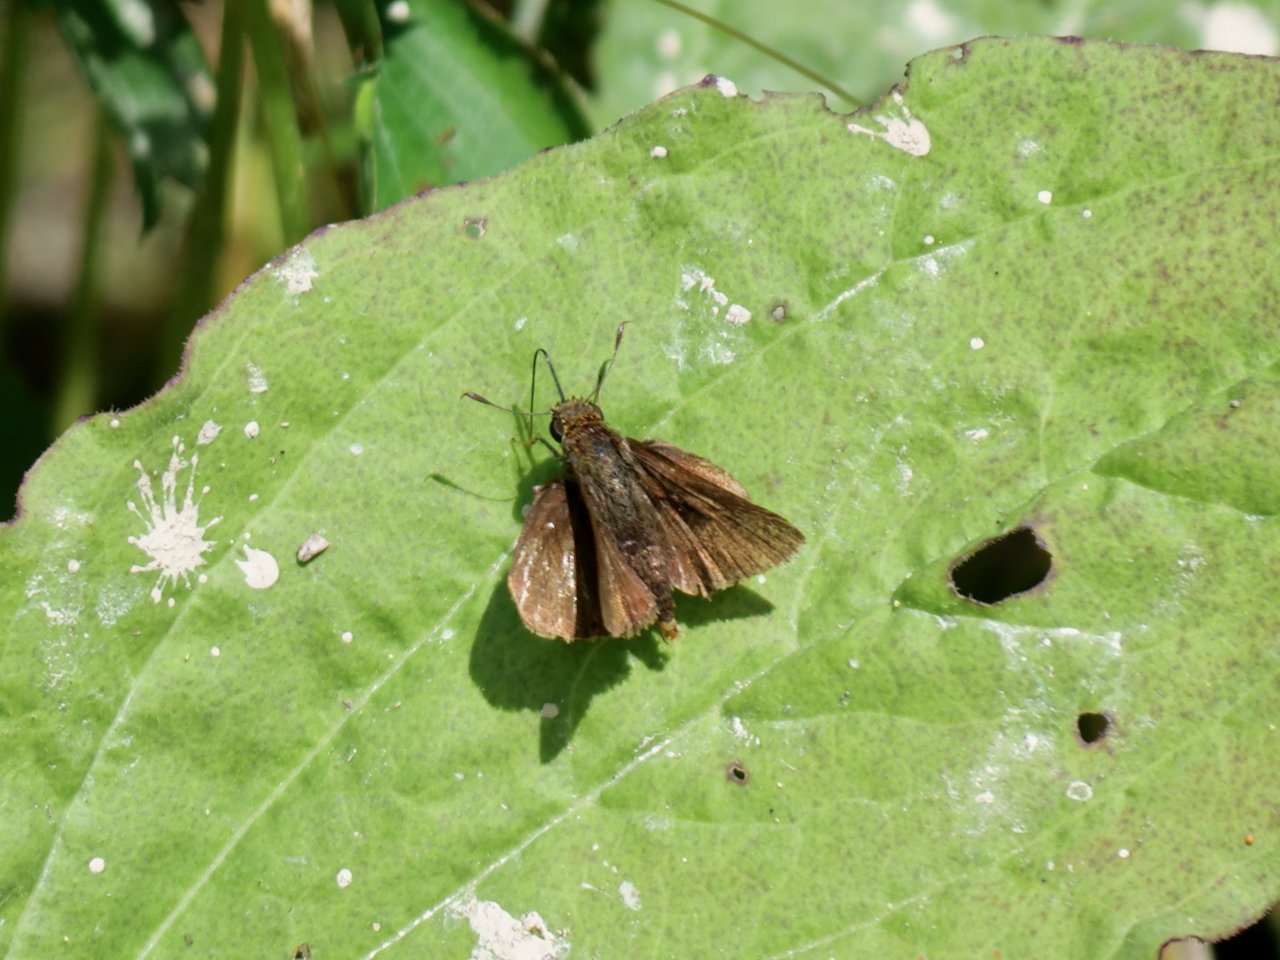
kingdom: Animalia
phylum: Arthropoda
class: Insecta
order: Lepidoptera
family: Hesperiidae
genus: Euphyes
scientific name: Euphyes vestris
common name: Dun Skipper
